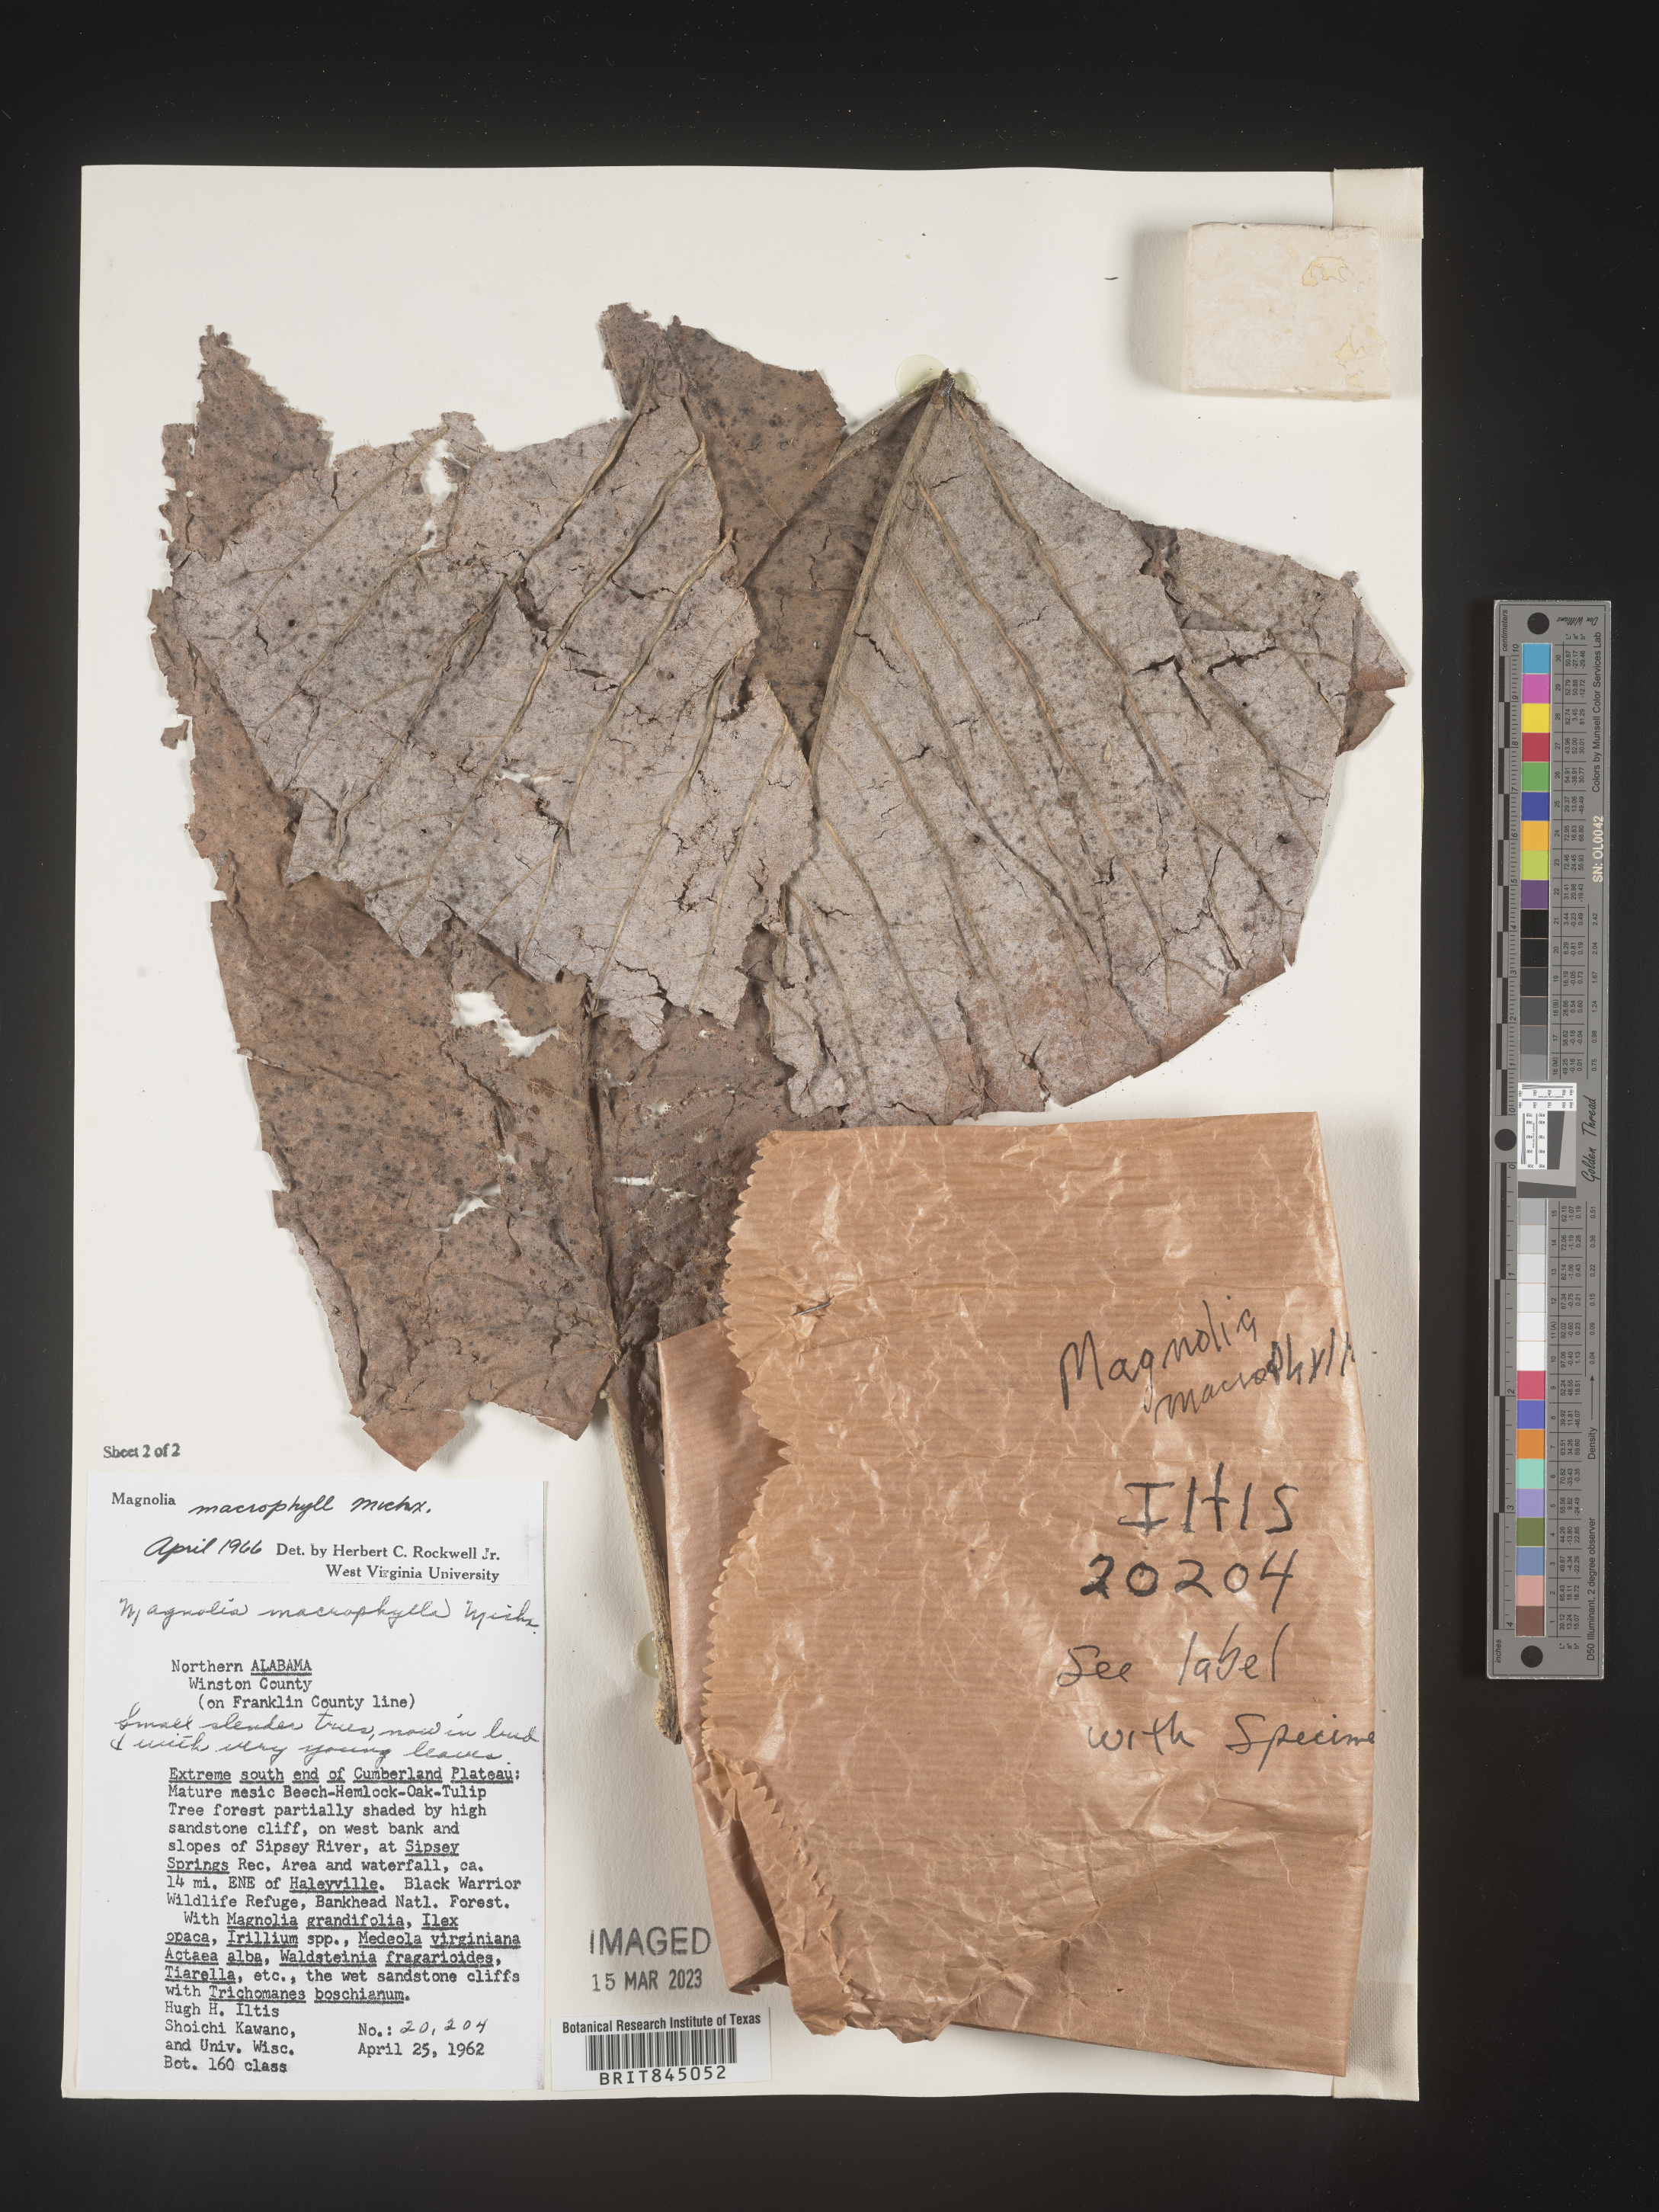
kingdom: Plantae
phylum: Tracheophyta
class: Magnoliopsida
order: Magnoliales
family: Magnoliaceae
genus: Magnolia
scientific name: Magnolia macrophylla
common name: Big-leaf magnolia
